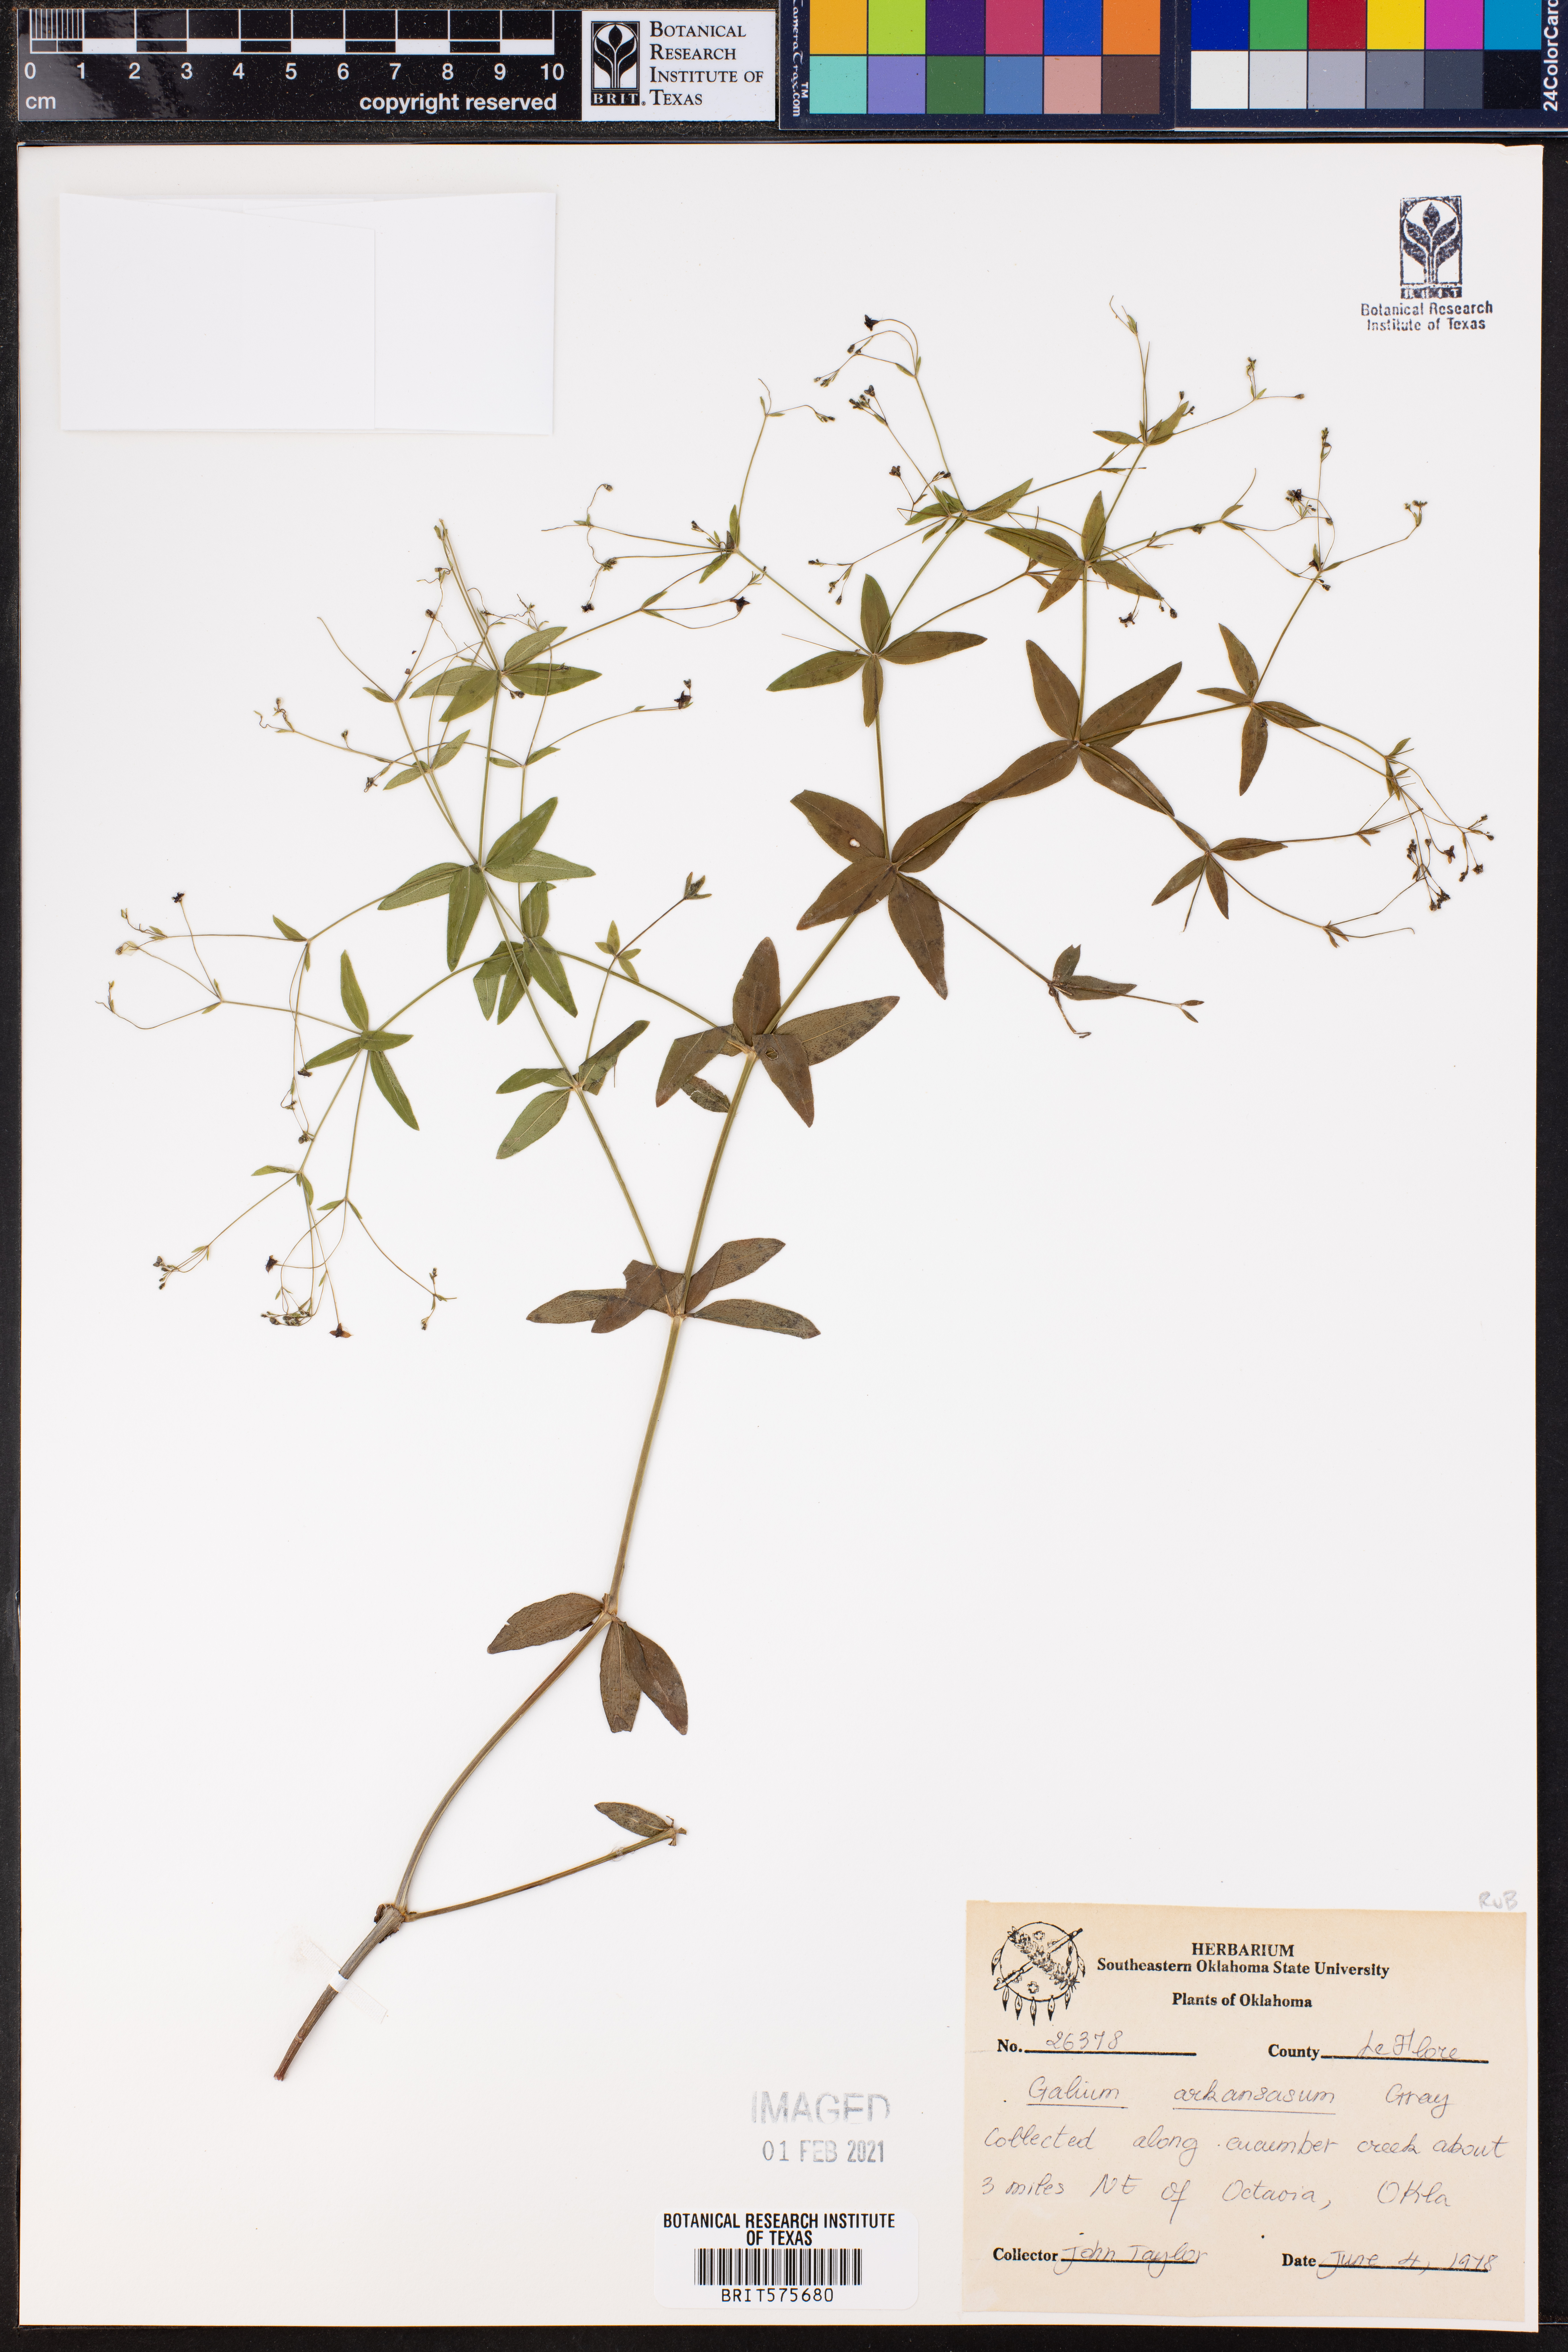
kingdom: Plantae
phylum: Tracheophyta
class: Magnoliopsida
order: Gentianales
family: Rubiaceae
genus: Galium
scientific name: Galium arkansanum
